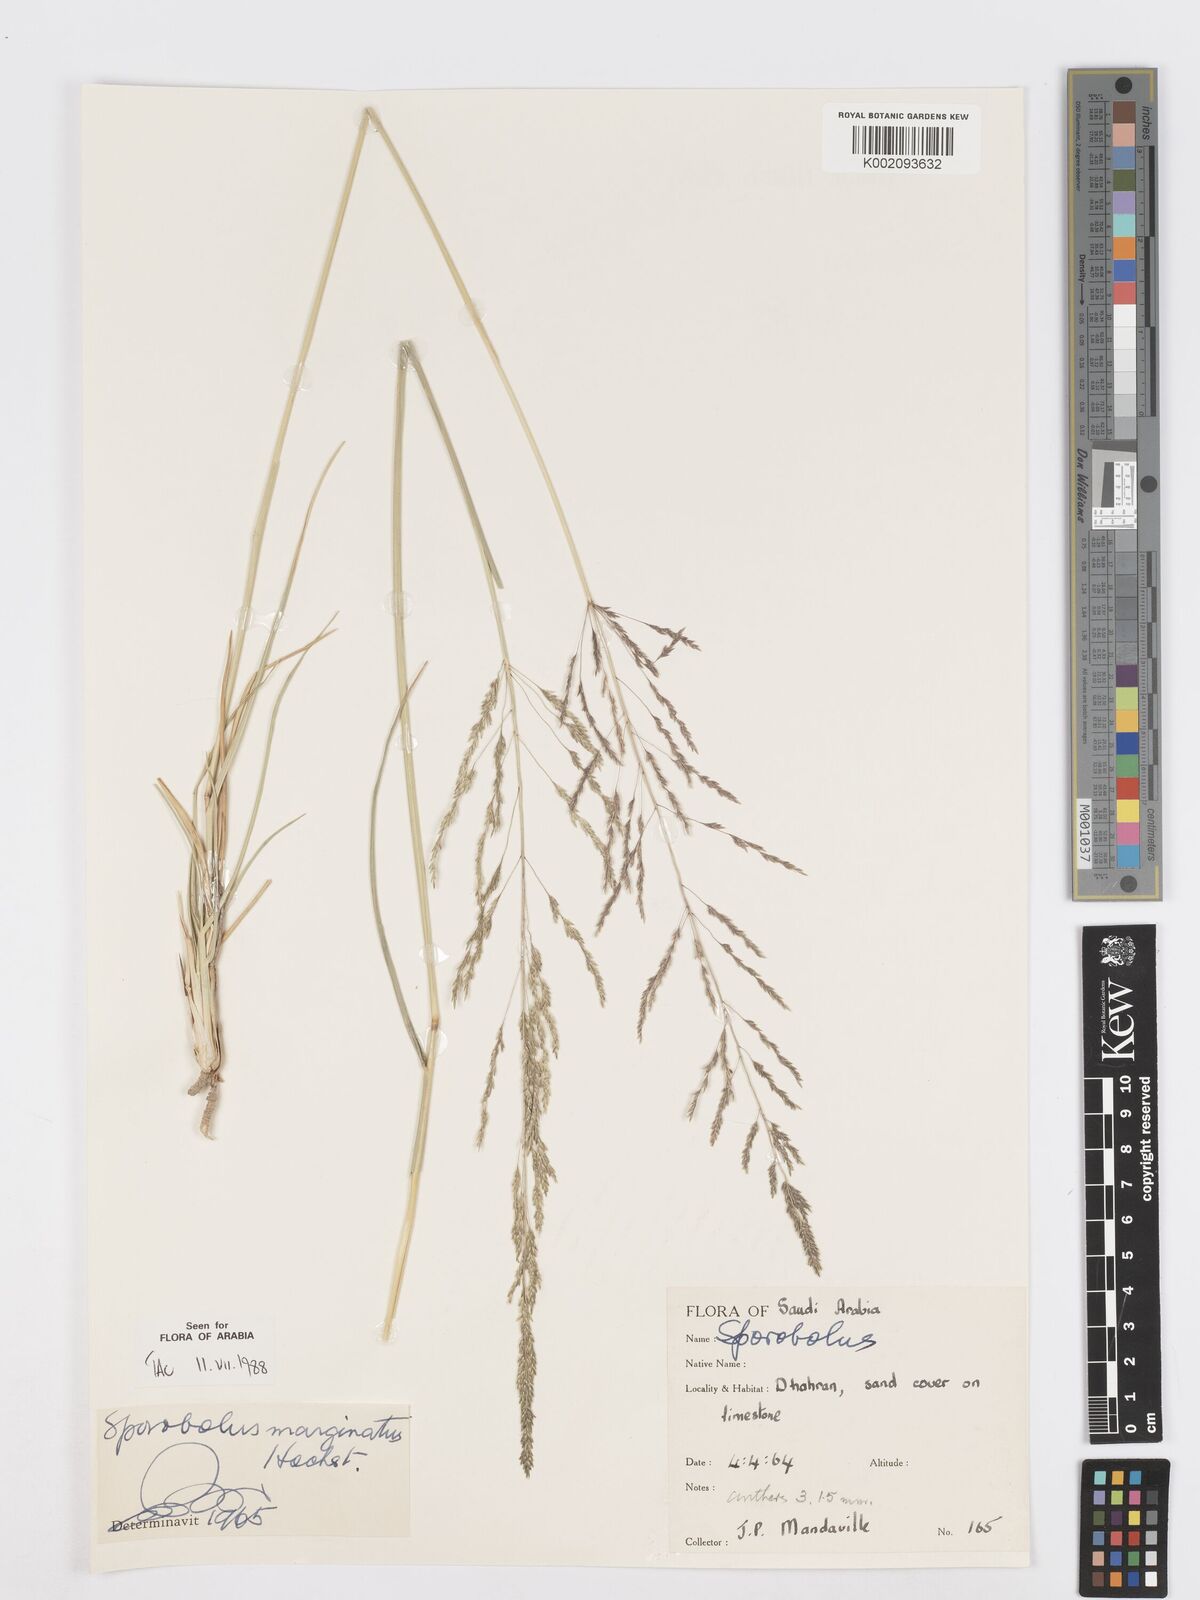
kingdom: Plantae
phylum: Tracheophyta
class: Liliopsida
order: Poales
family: Poaceae
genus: Sporobolus
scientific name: Sporobolus ioclados
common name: Pan dropseed
